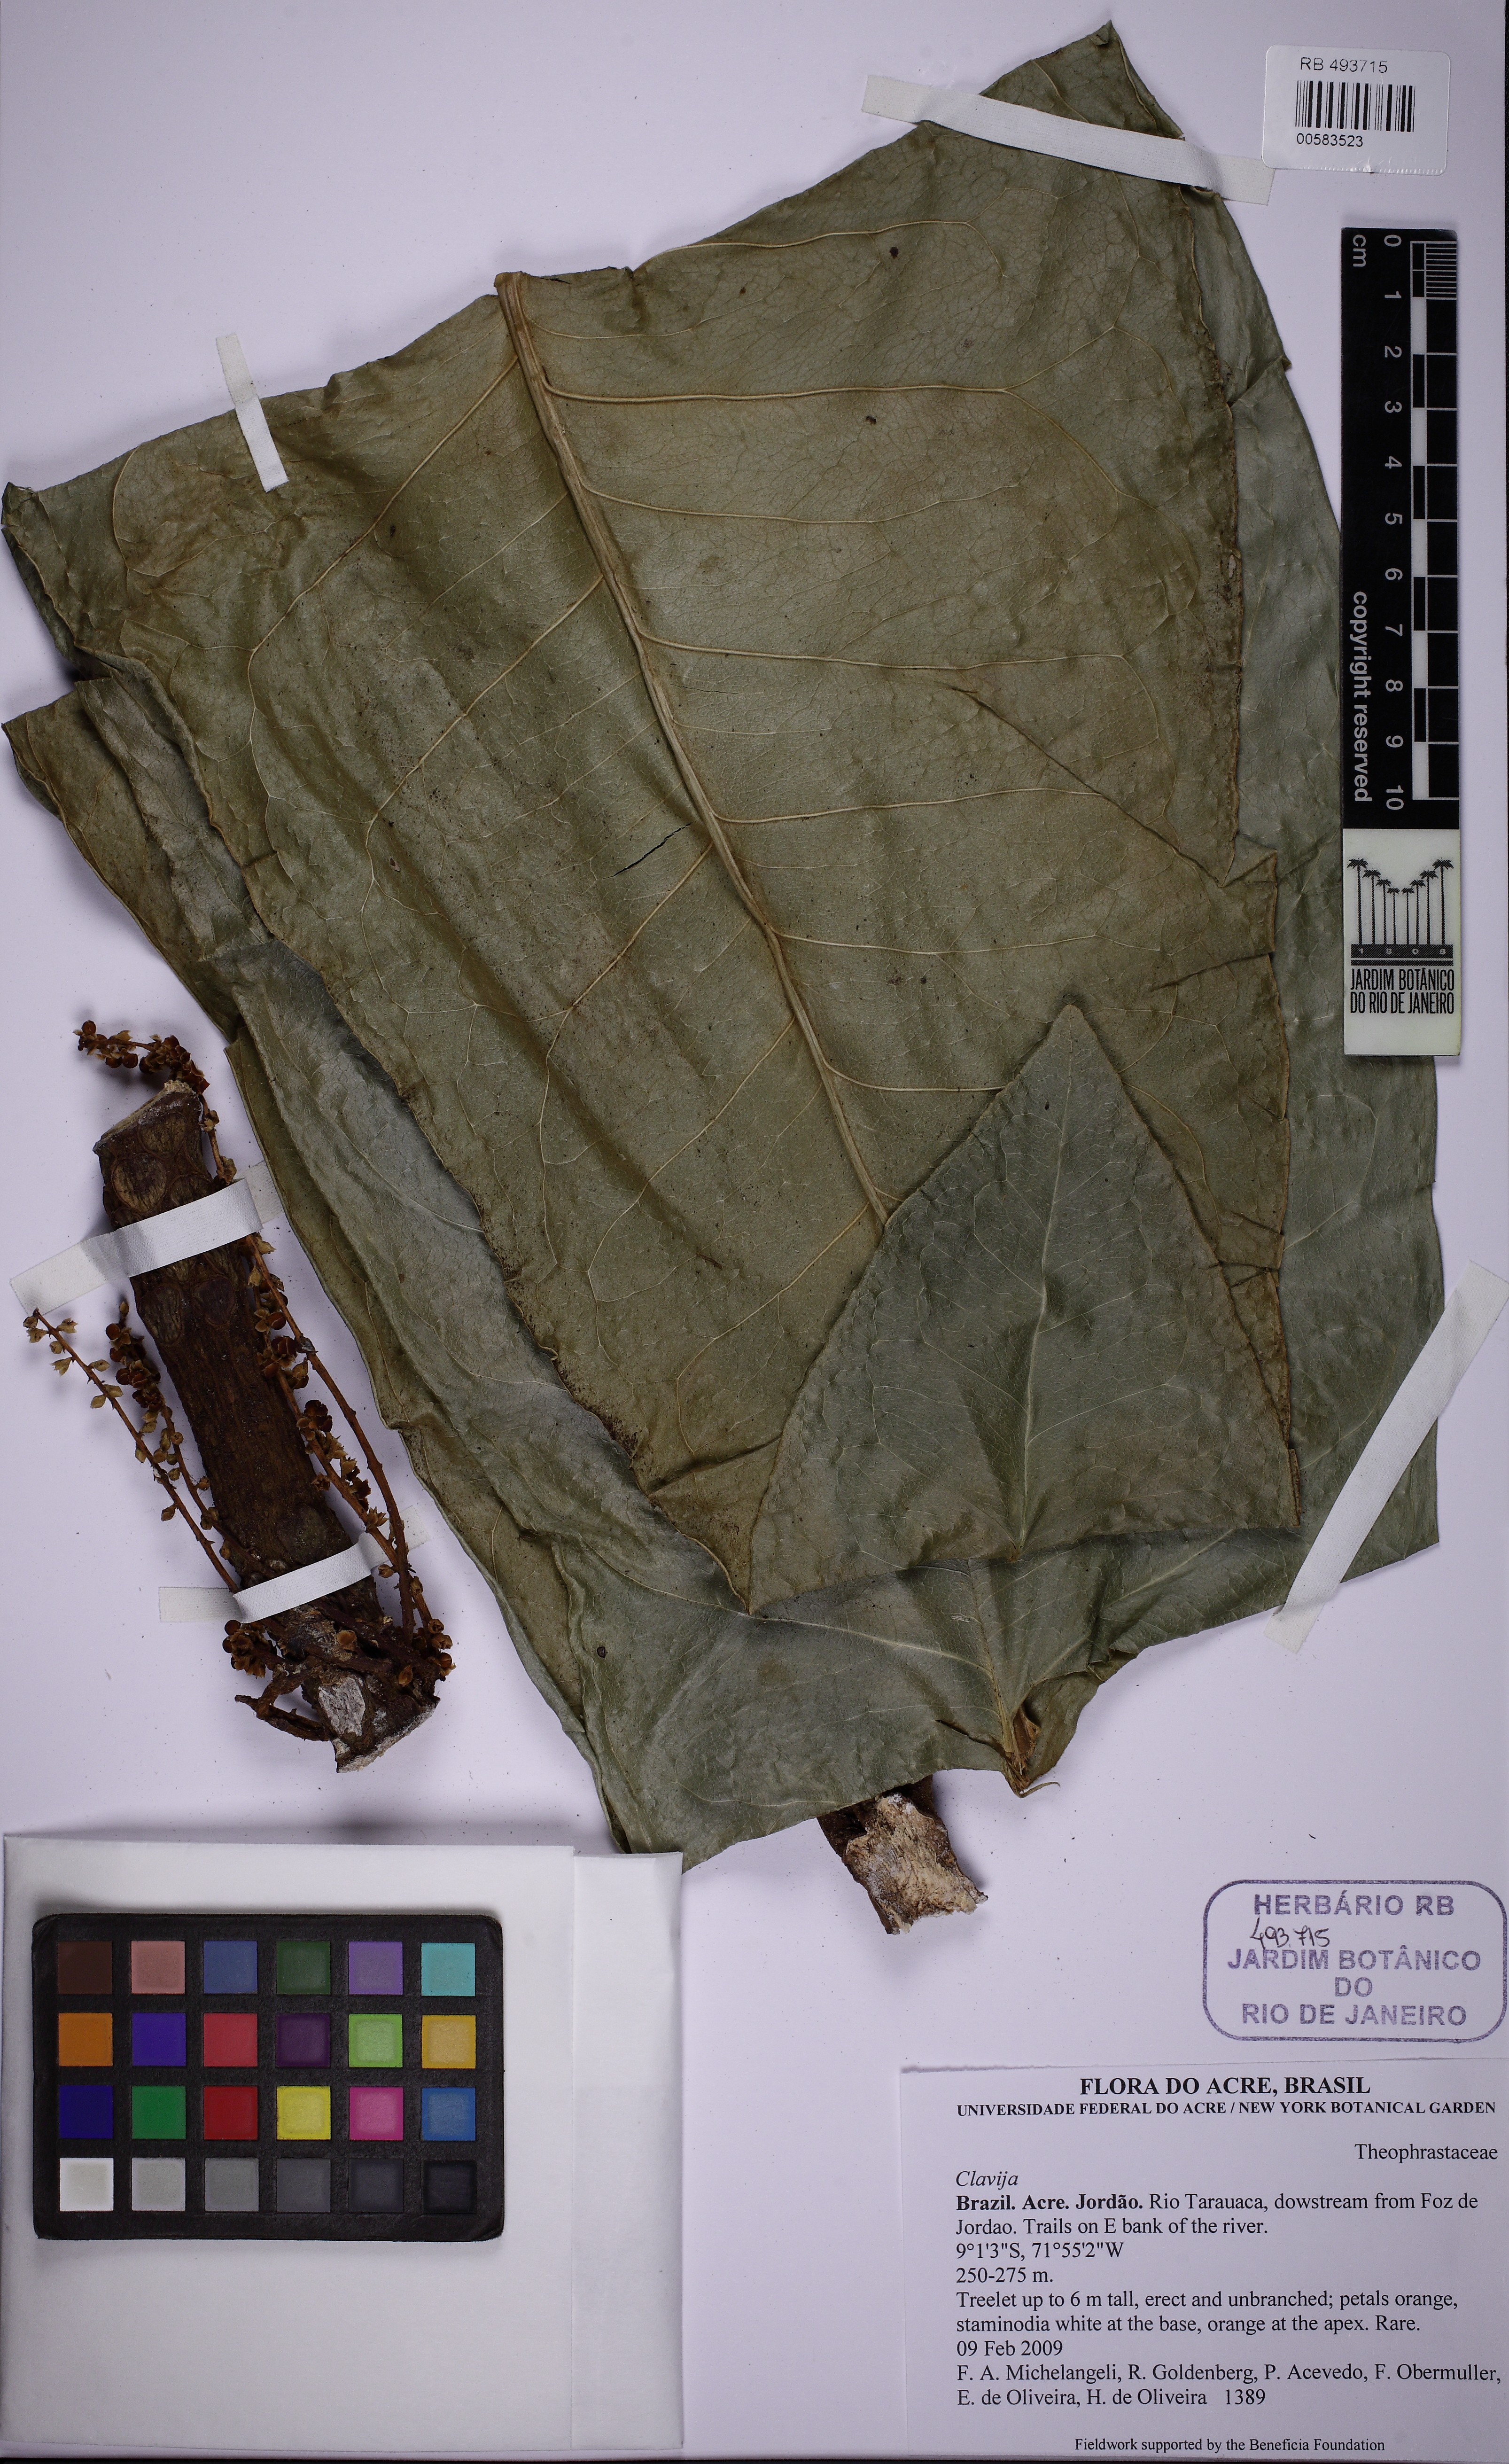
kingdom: Plantae
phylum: Tracheophyta
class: Magnoliopsida
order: Ericales
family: Primulaceae
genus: Clavija
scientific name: Clavija
